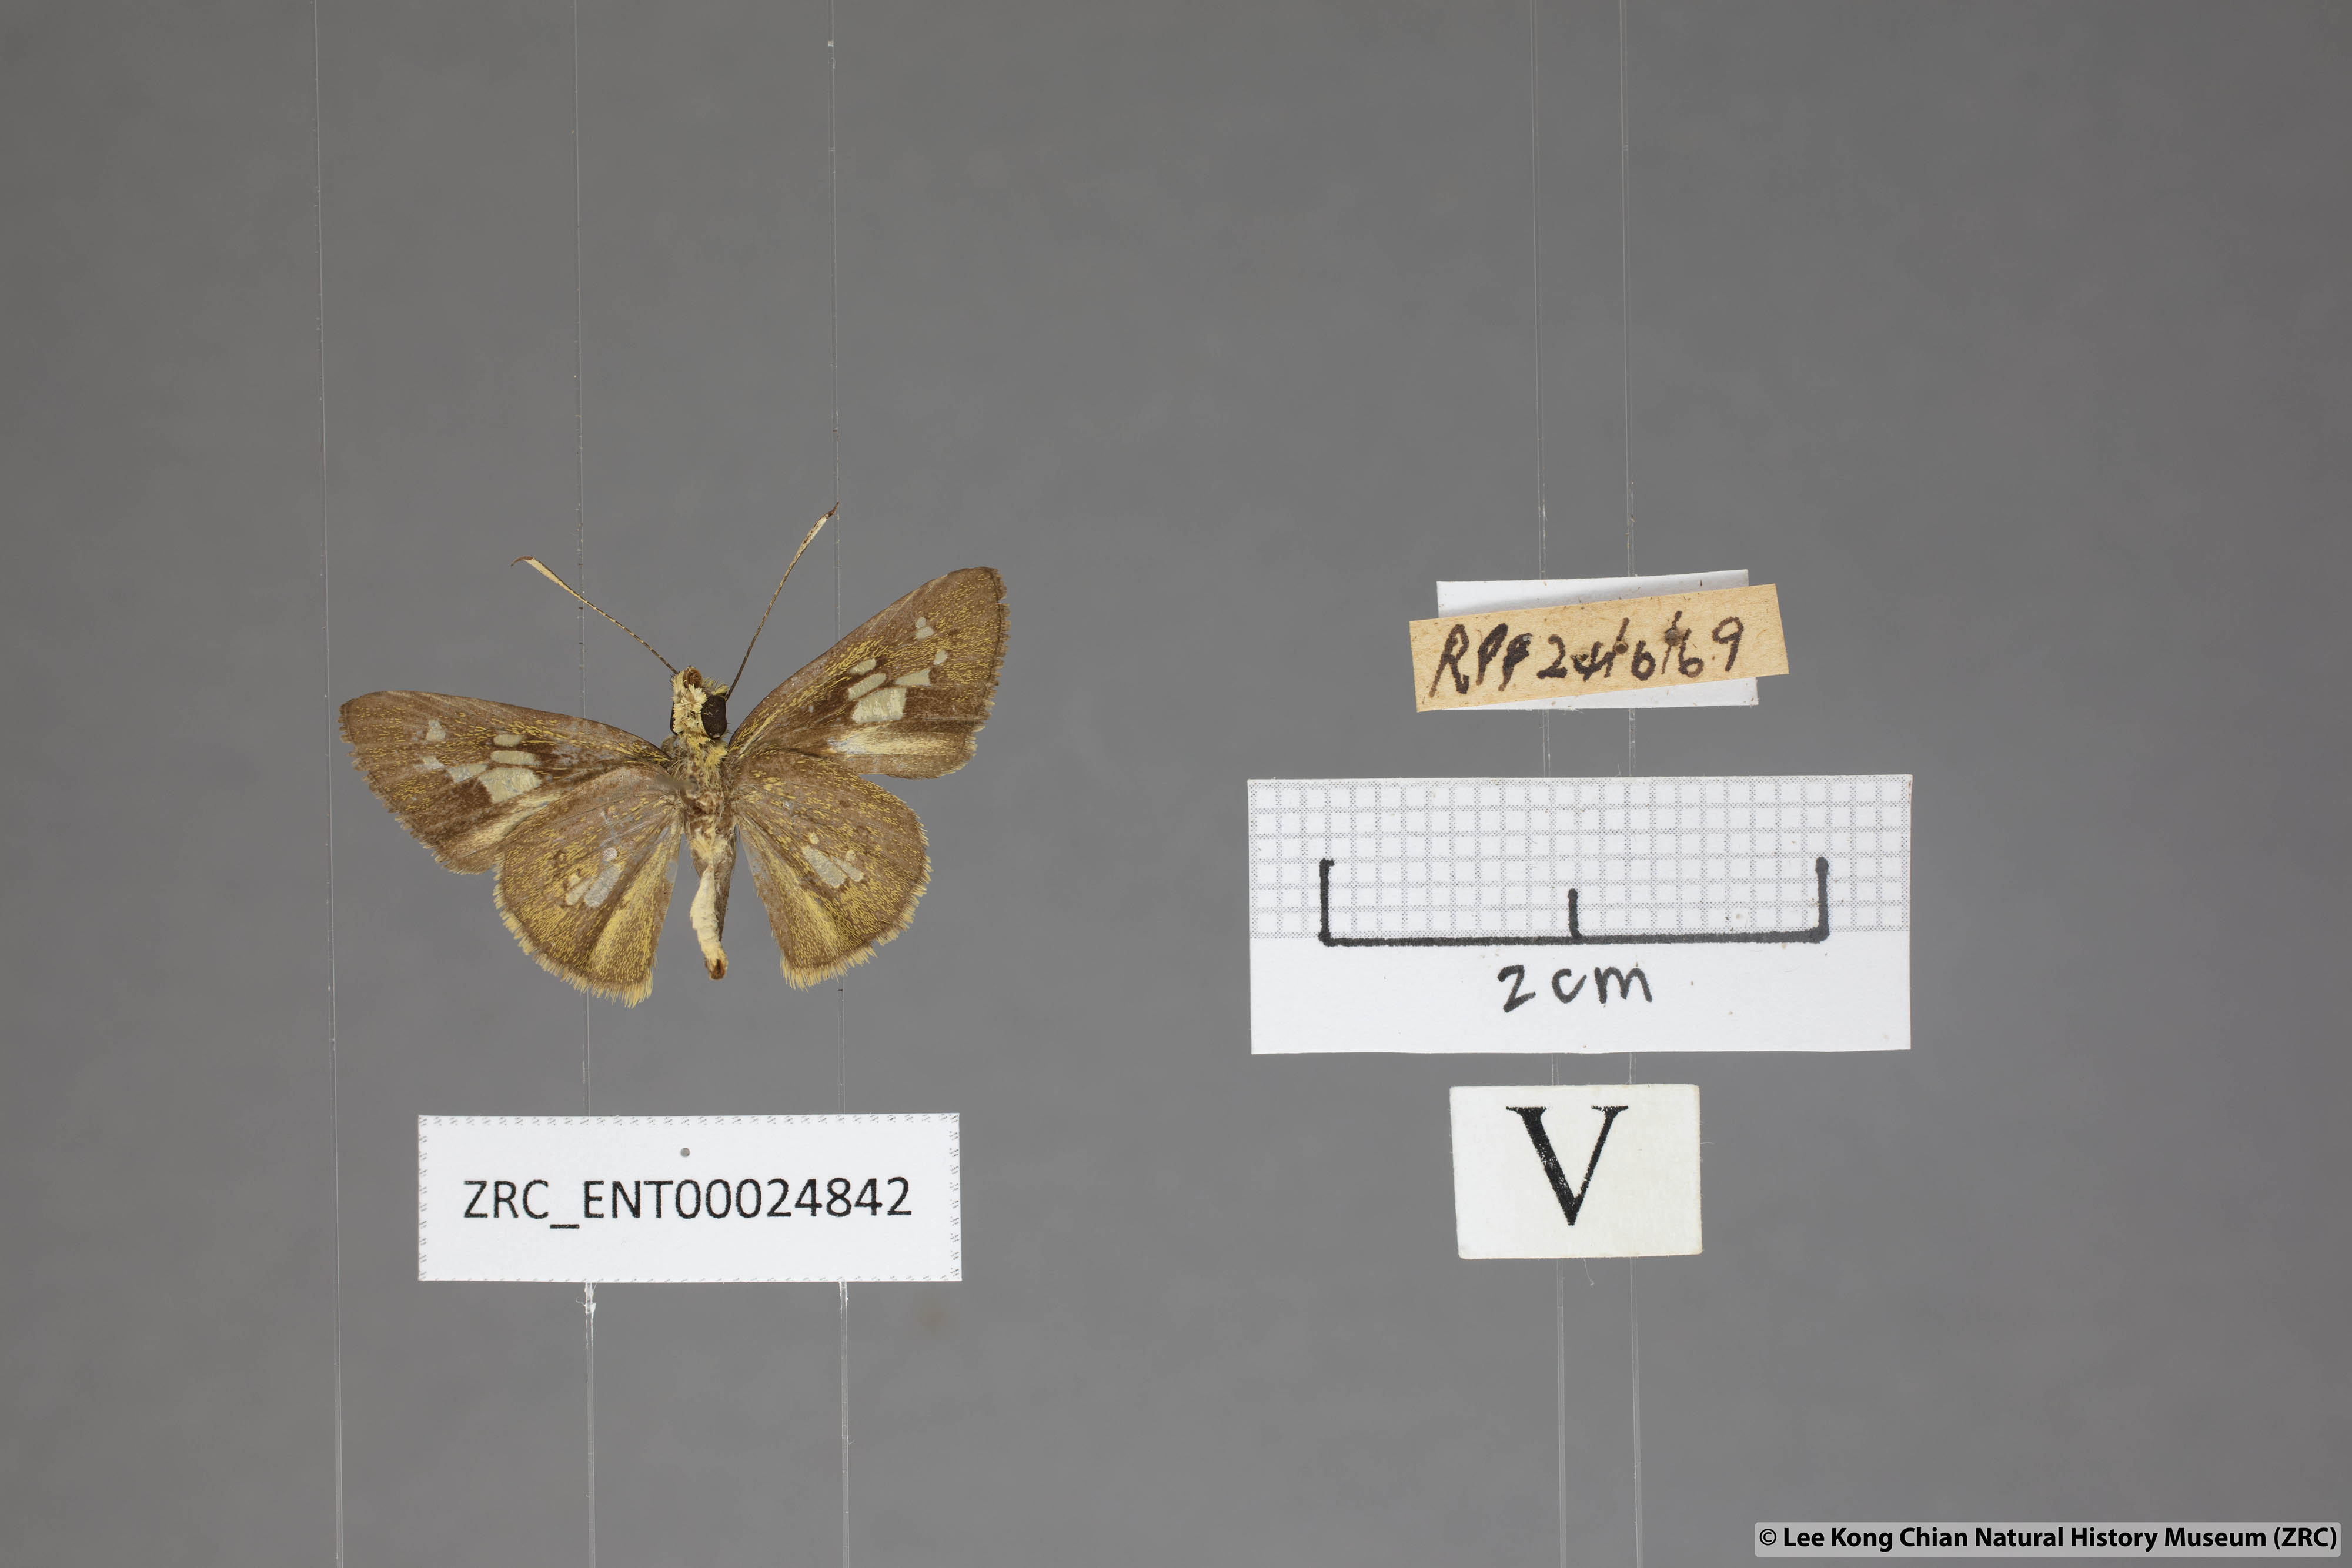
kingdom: Animalia
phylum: Arthropoda
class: Insecta
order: Lepidoptera
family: Hesperiidae
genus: Isma
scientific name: Isma bononia
